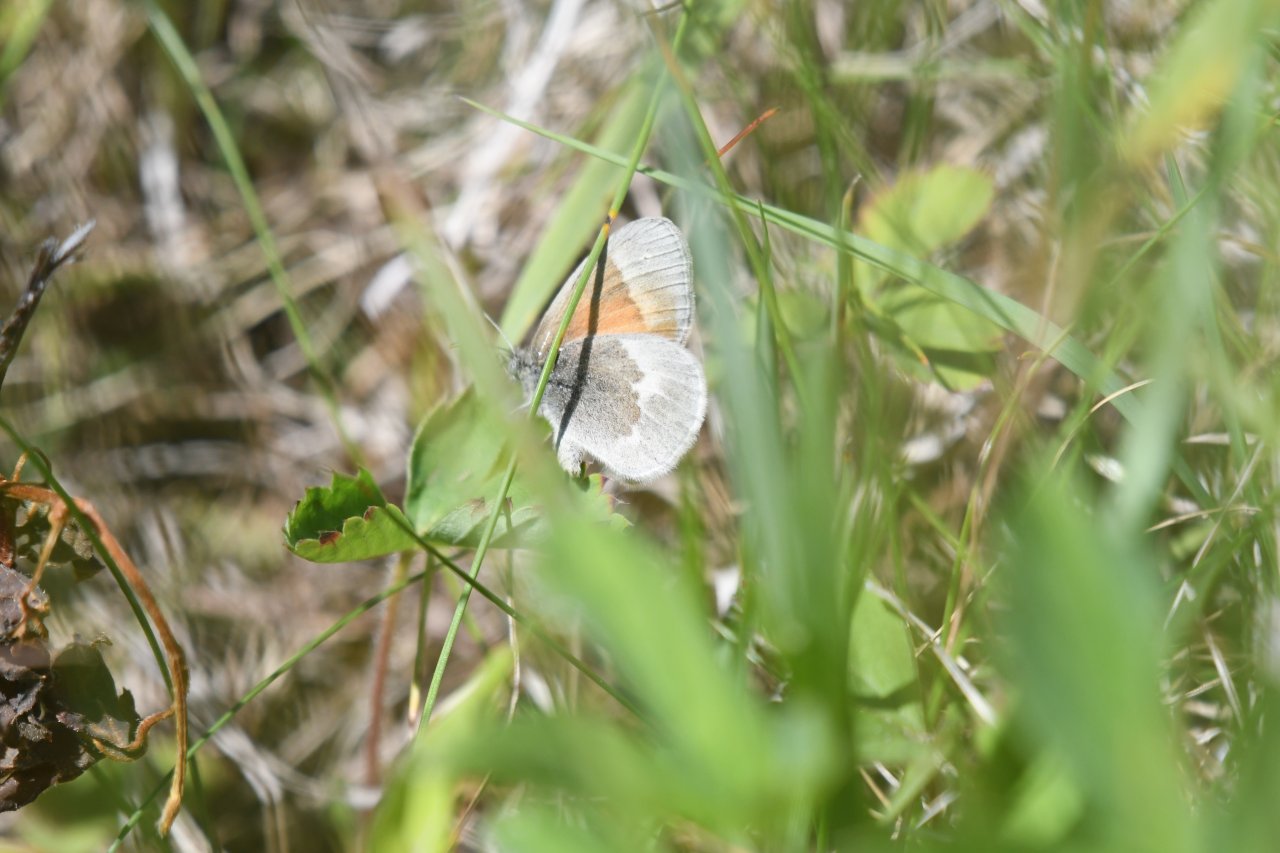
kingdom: Animalia
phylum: Arthropoda
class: Insecta
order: Lepidoptera
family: Nymphalidae
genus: Coenonympha
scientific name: Coenonympha tullia
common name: Large Heath
